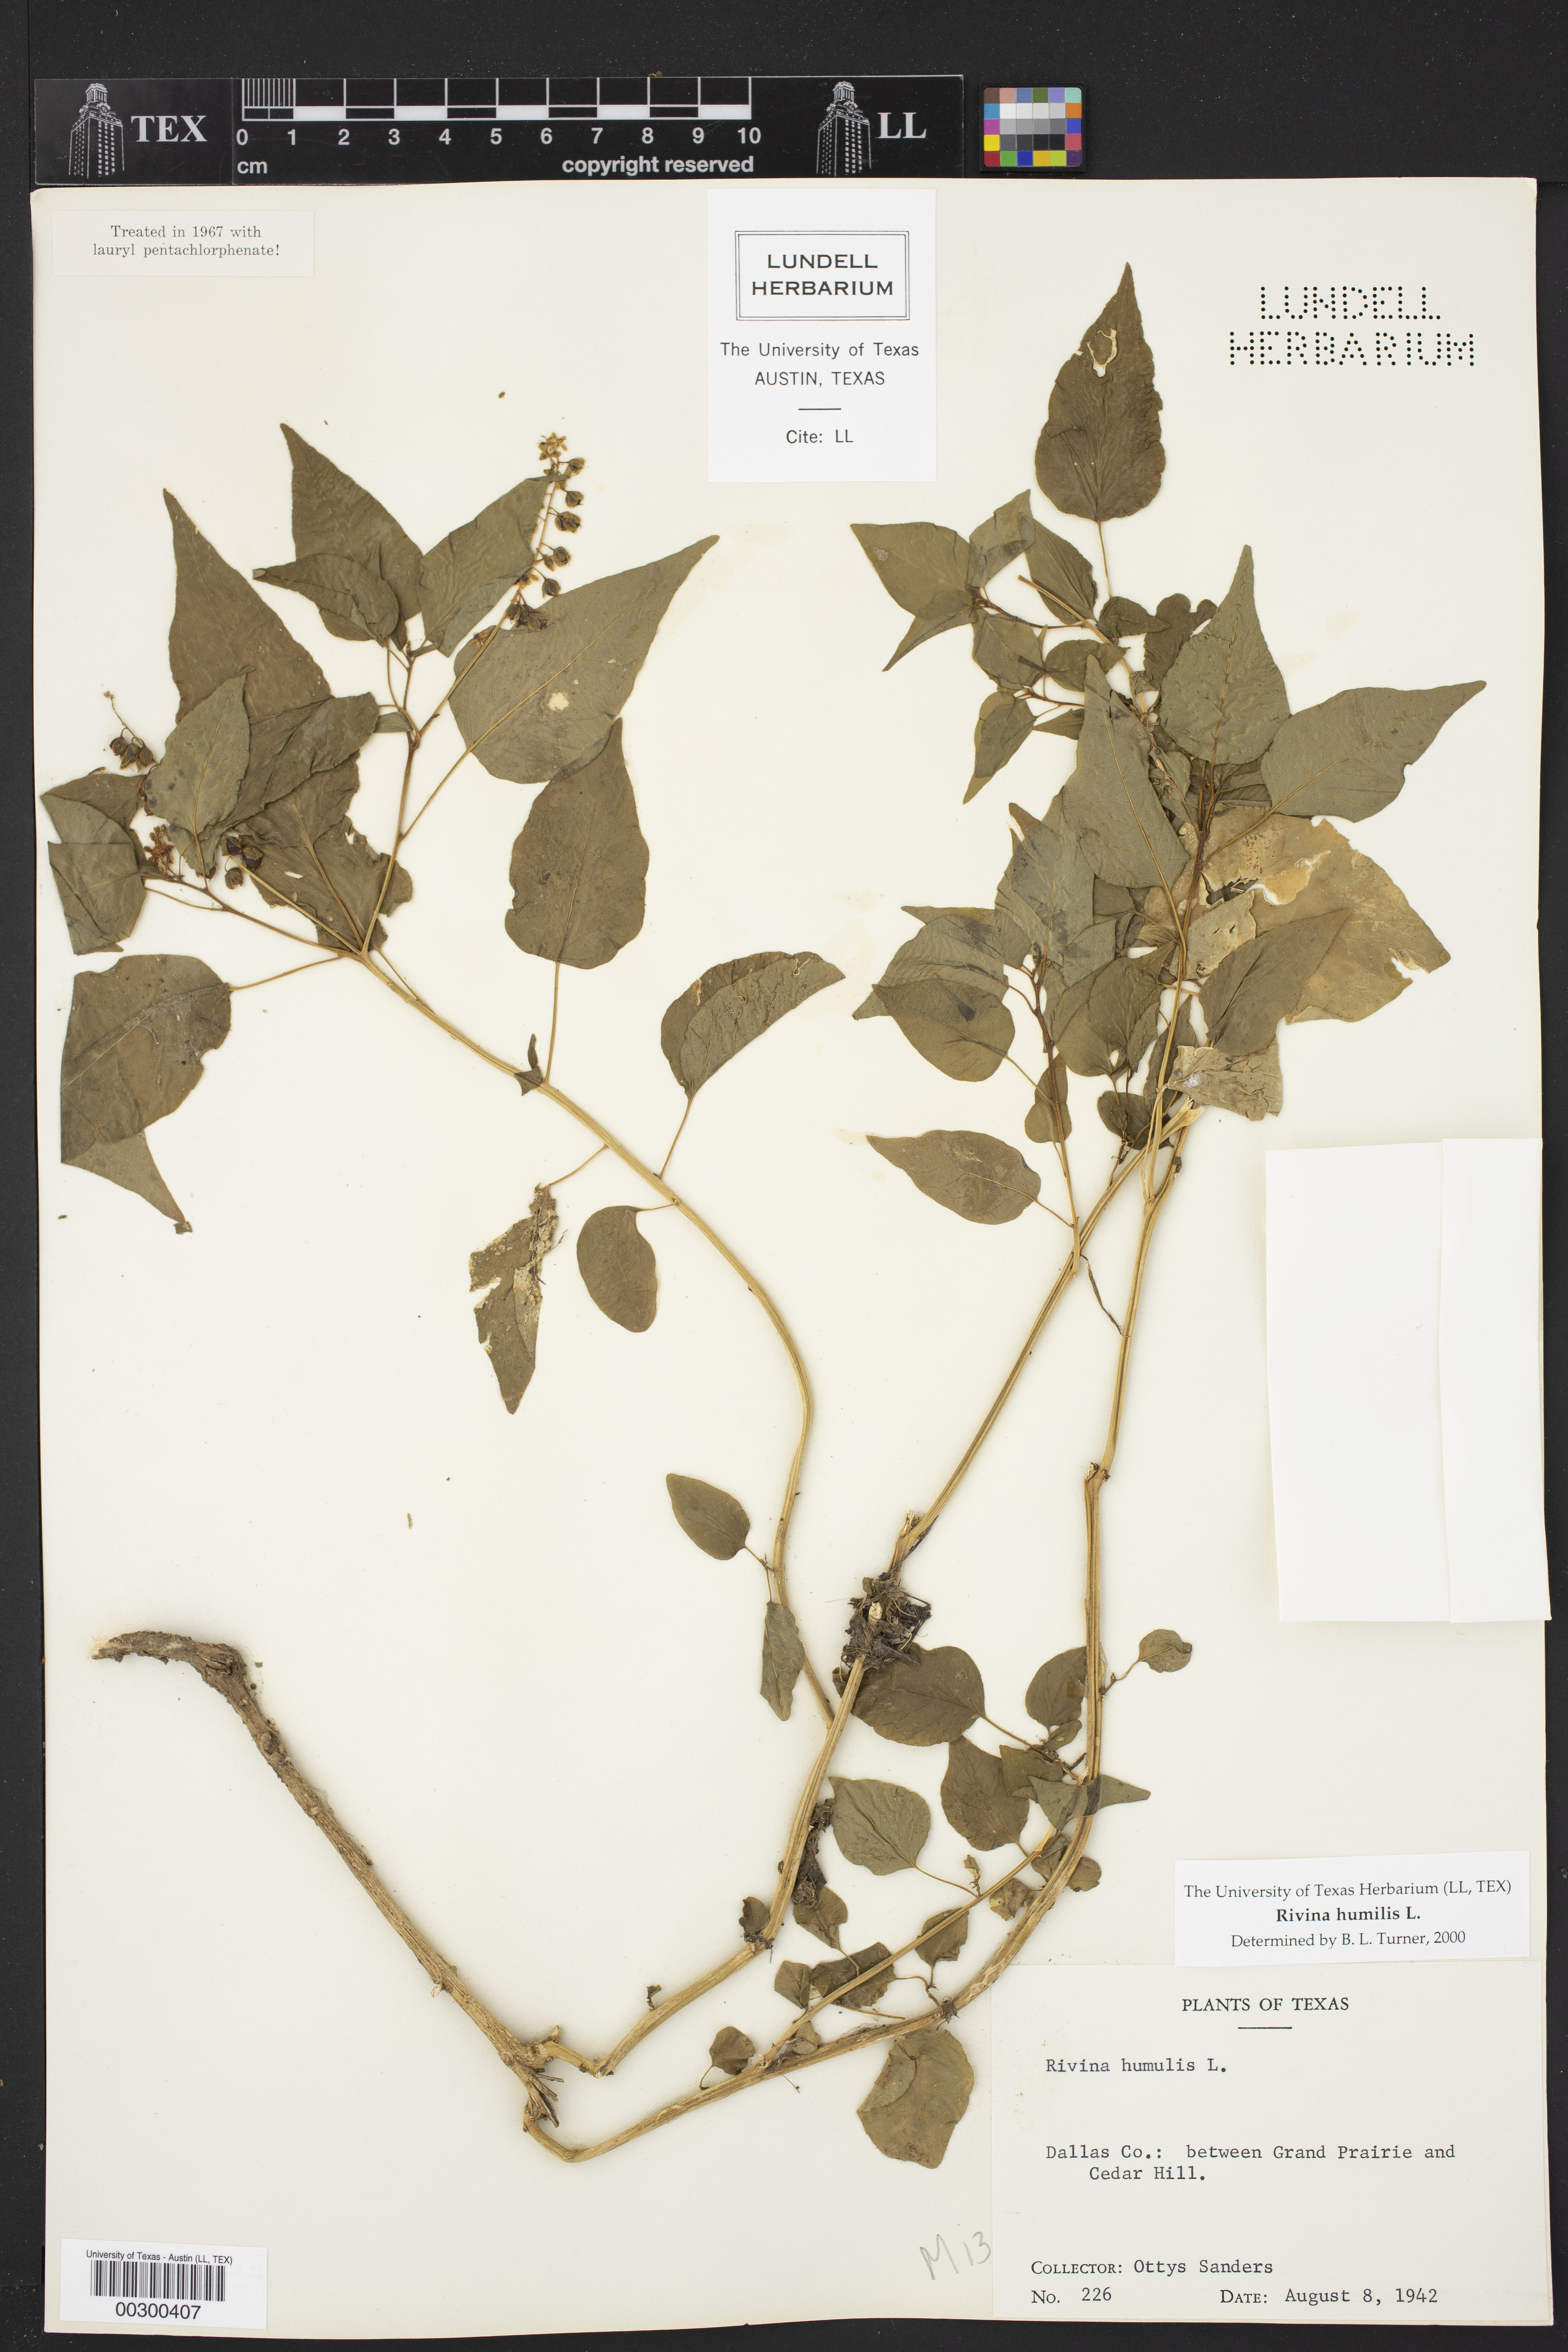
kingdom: Plantae
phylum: Tracheophyta
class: Magnoliopsida
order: Caryophyllales
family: Phytolaccaceae
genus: Rivina
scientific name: Rivina humilis
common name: Rougeplant
